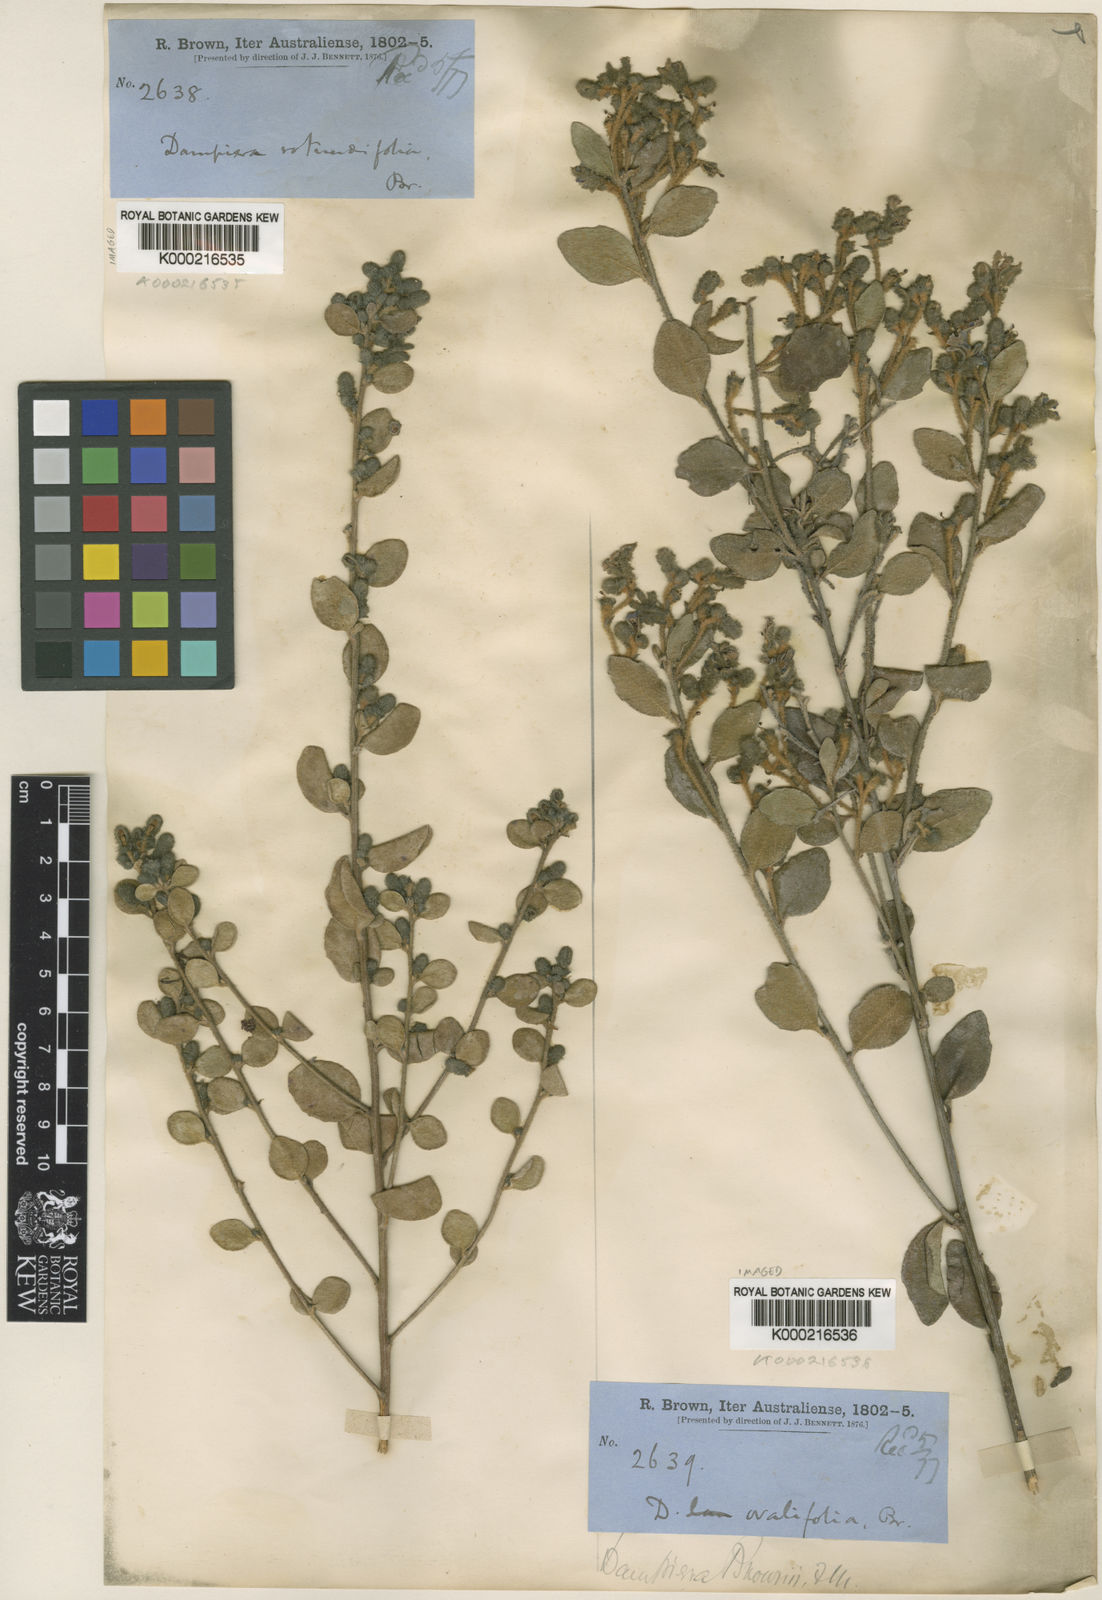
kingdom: Plantae
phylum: Tracheophyta
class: Magnoliopsida
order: Asterales
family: Goodeniaceae
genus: Dampiera
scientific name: Dampiera purpurea
